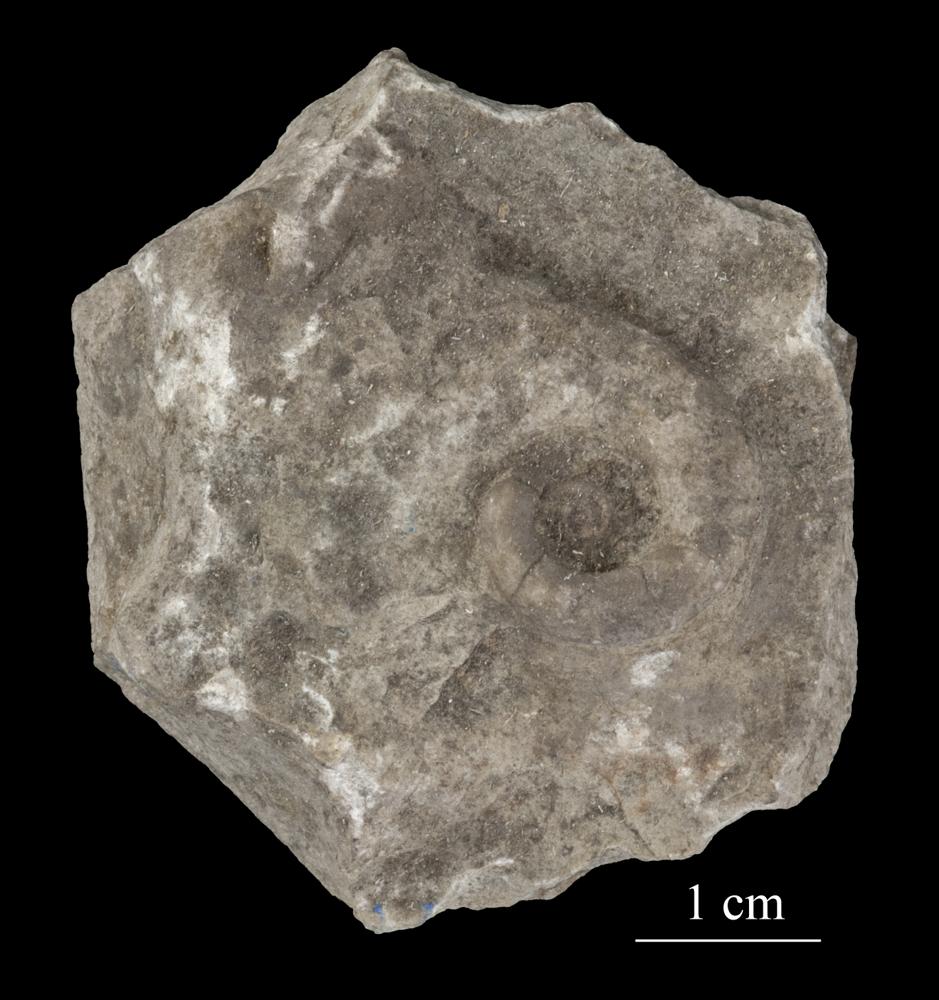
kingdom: Animalia
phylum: Mollusca
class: Gastropoda
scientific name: Gastropoda
